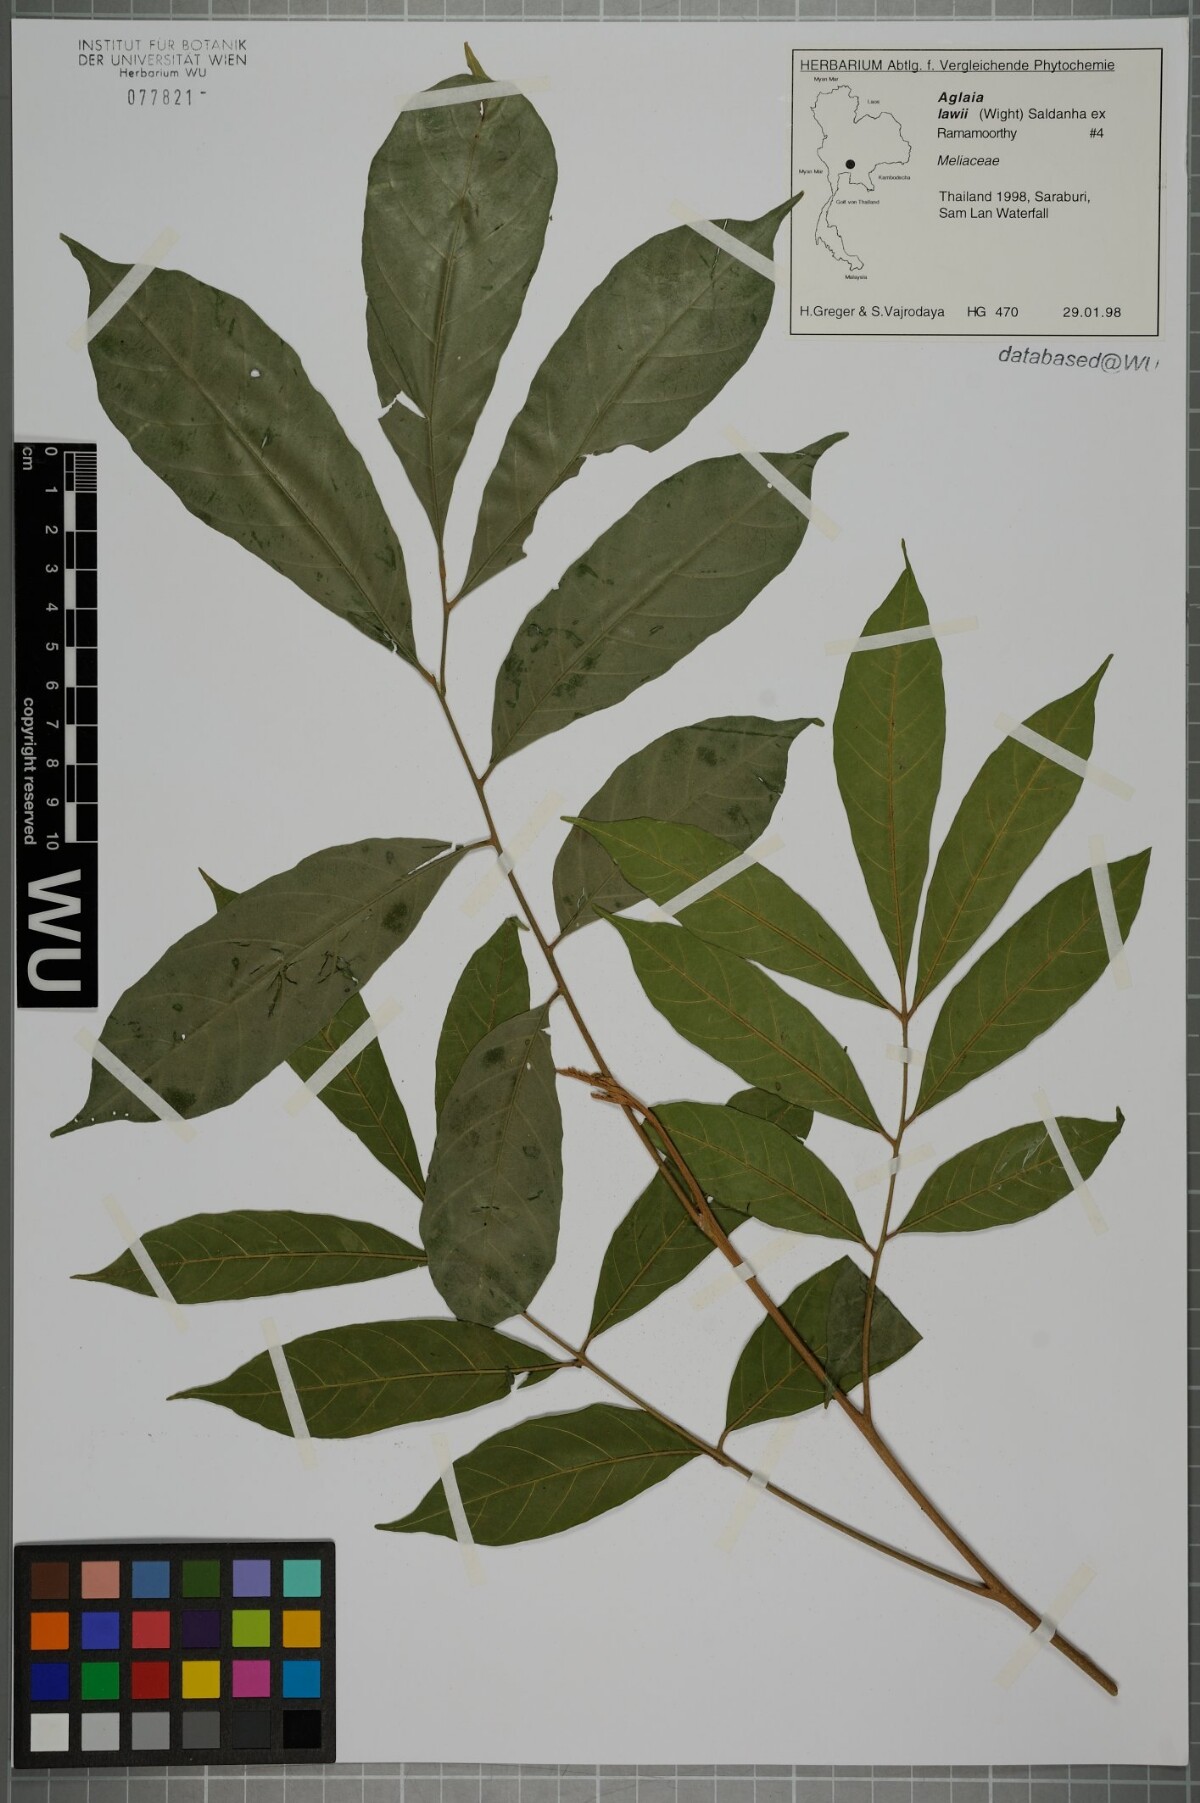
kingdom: Plantae
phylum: Tracheophyta
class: Magnoliopsida
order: Sapindales
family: Meliaceae
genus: Aglaia
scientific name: Aglaia lawii
